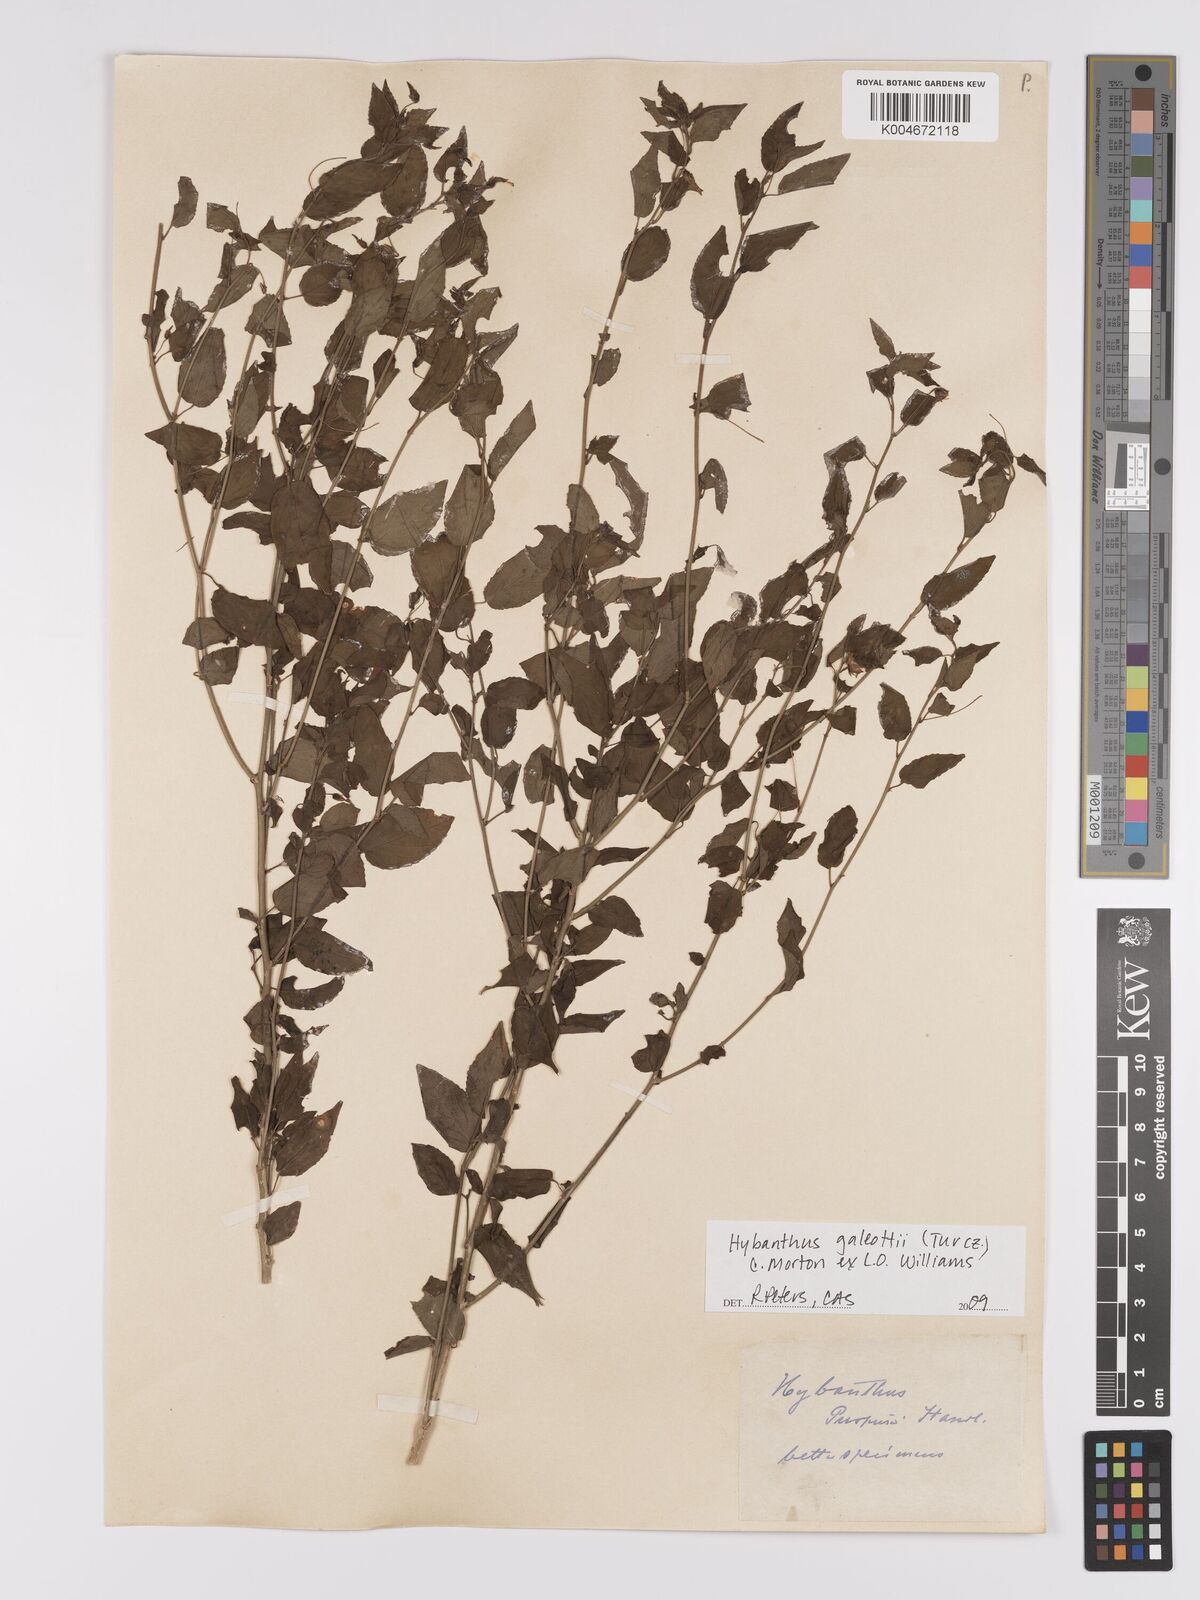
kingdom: Plantae
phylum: Tracheophyta
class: Magnoliopsida
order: Malpighiales
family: Violaceae
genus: Hybanthus
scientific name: Hybanthus galeottii
